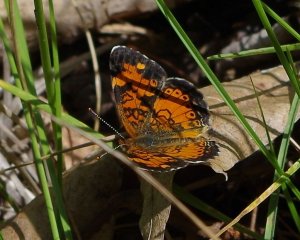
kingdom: Animalia
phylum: Arthropoda
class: Insecta
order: Lepidoptera
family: Nymphalidae
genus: Phyciodes
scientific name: Phyciodes tharos
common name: Northern Crescent
